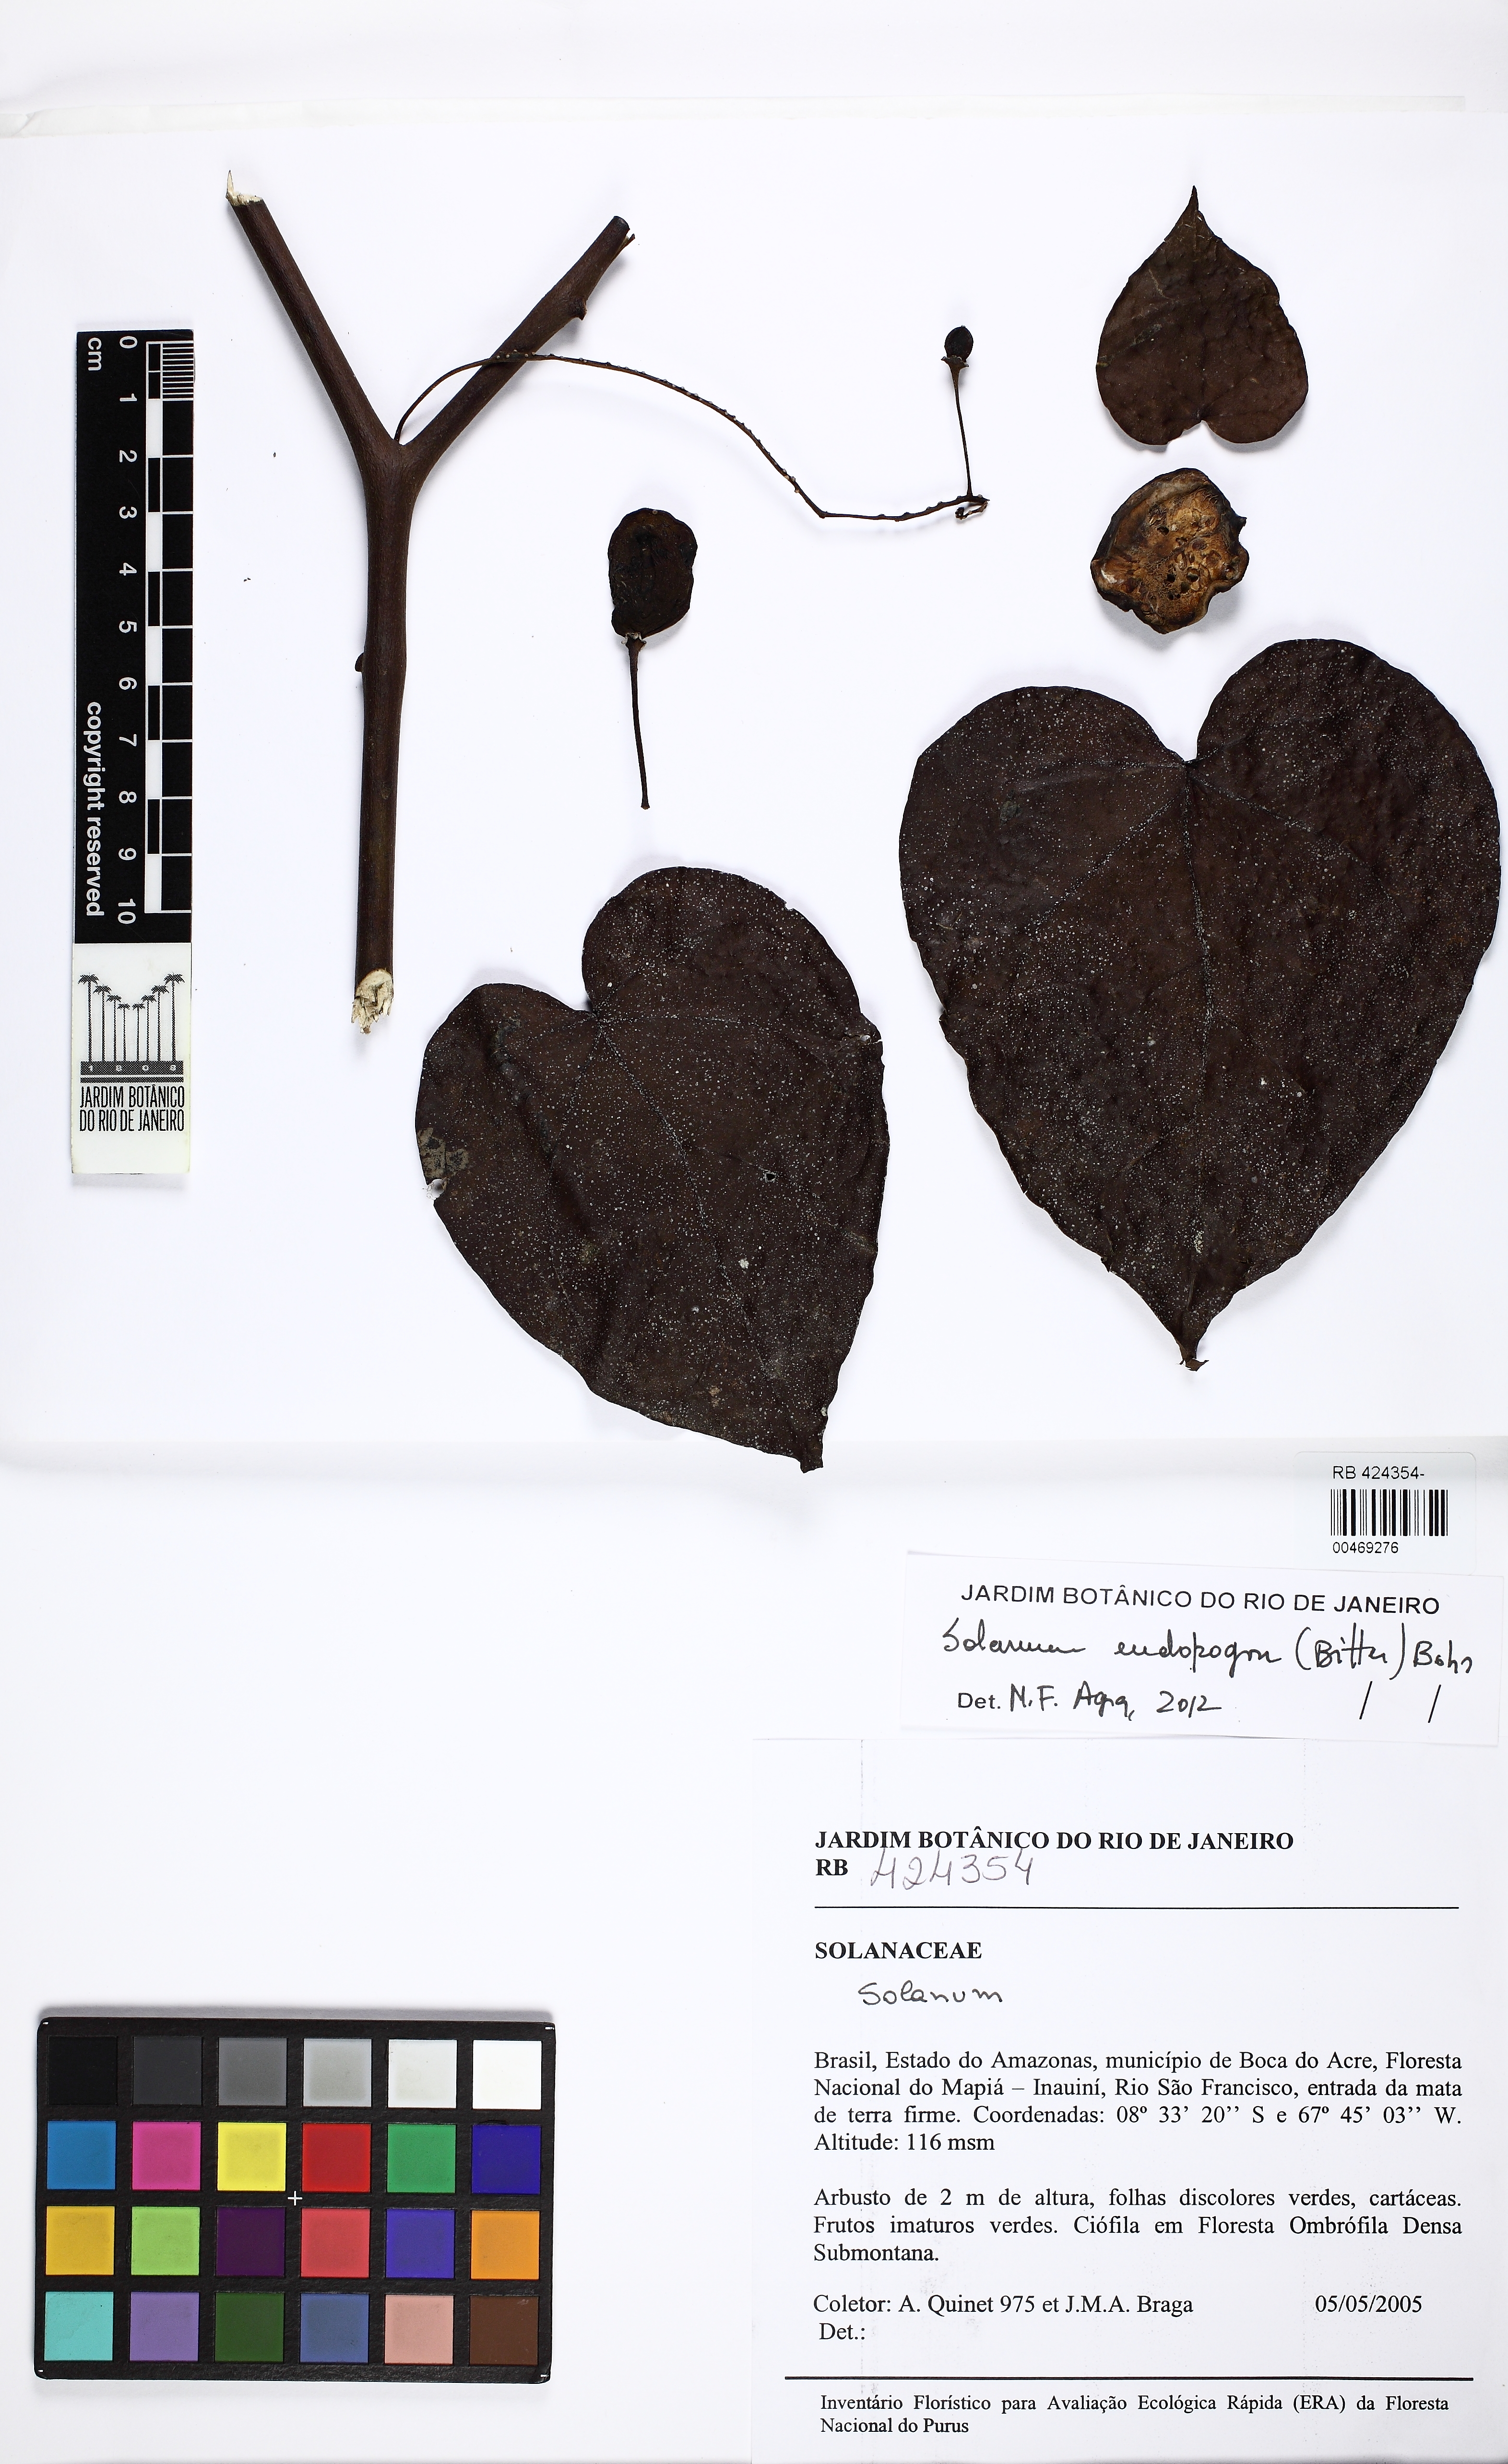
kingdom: Plantae
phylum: Tracheophyta
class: Magnoliopsida
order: Solanales
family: Solanaceae
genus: Solanum
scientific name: Solanum endopogon
